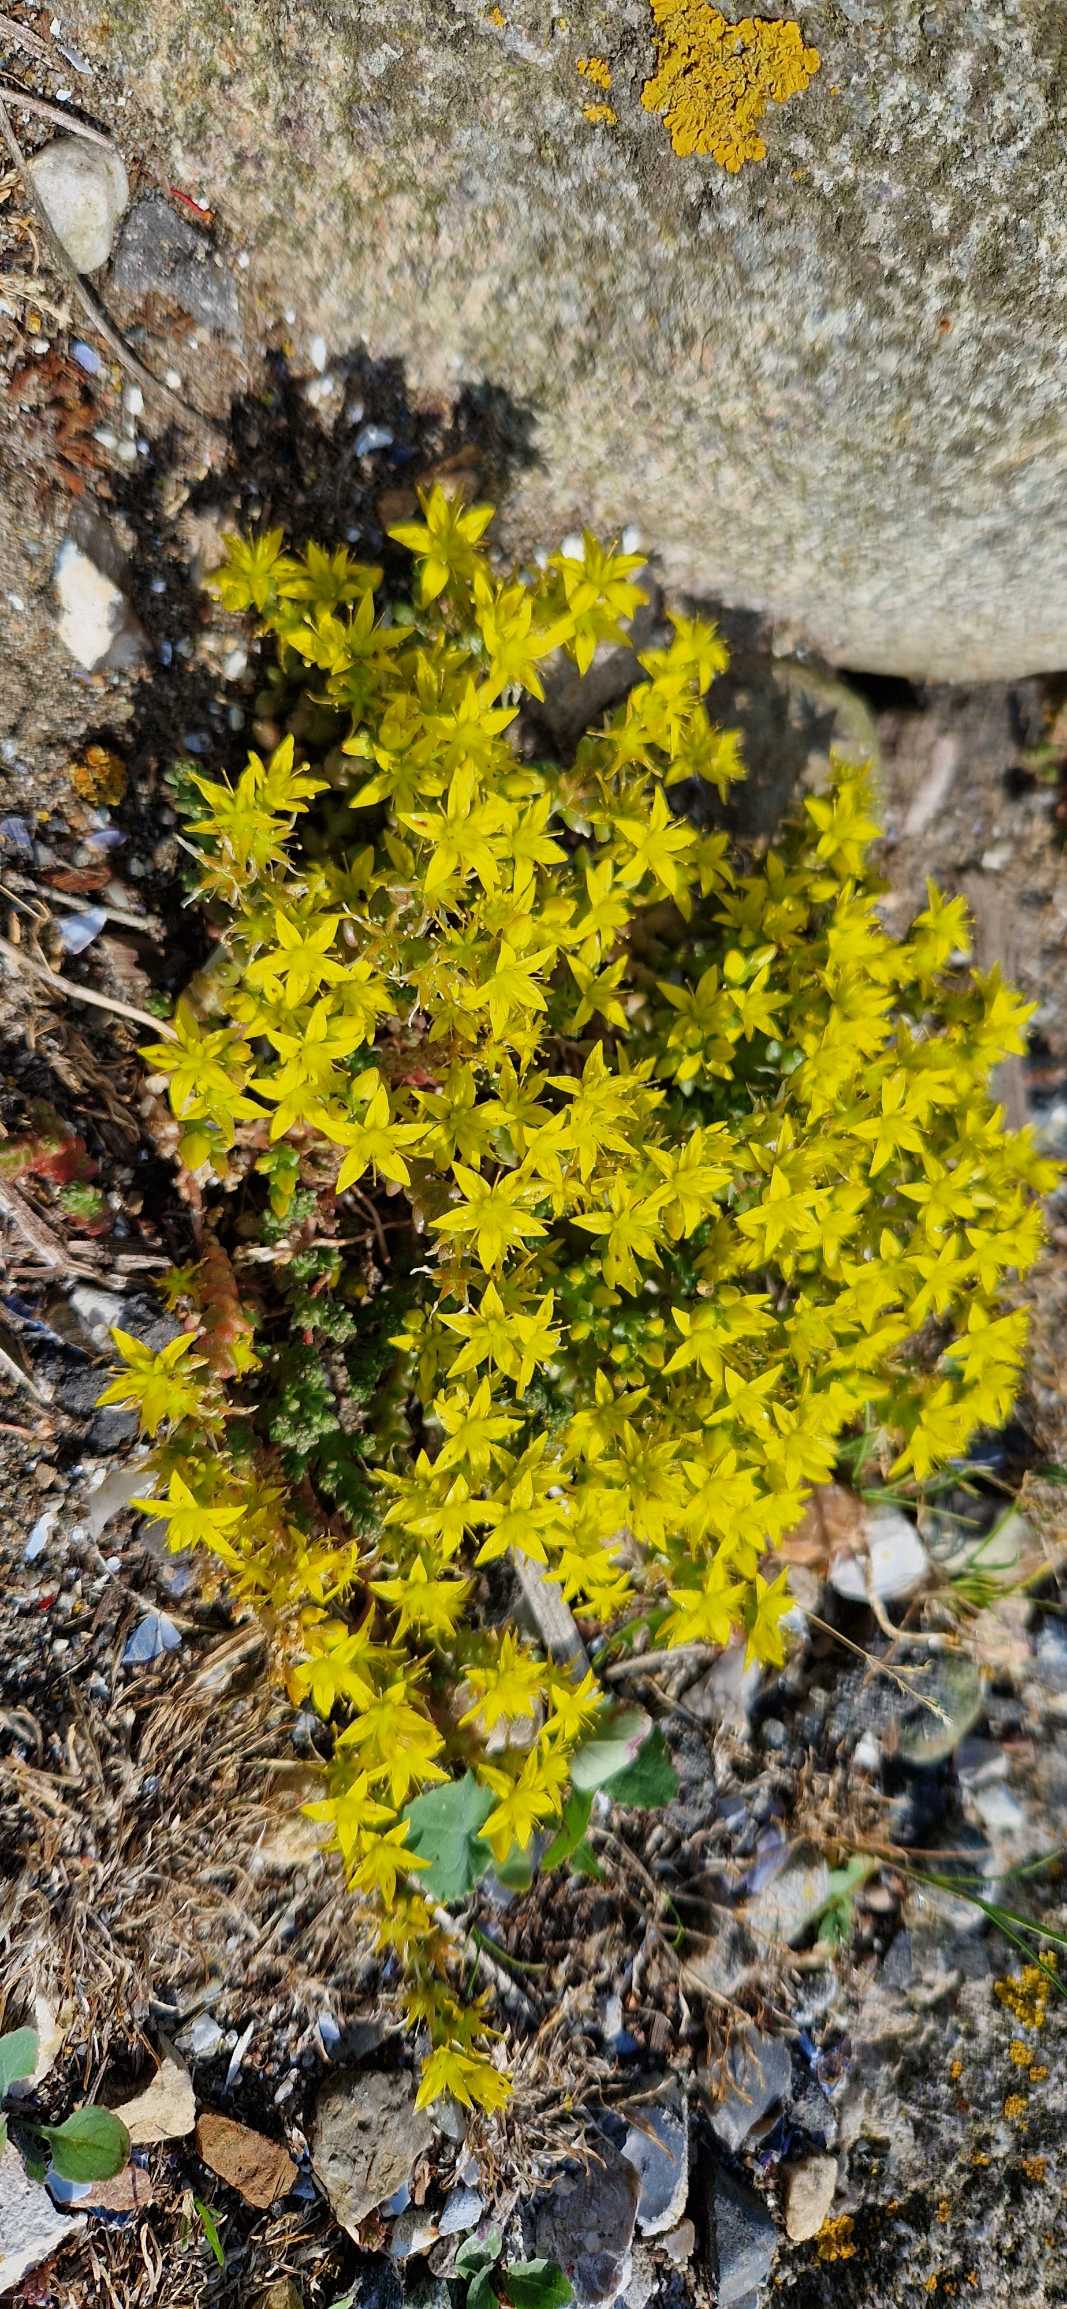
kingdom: Plantae
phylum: Tracheophyta
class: Magnoliopsida
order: Saxifragales
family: Crassulaceae
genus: Sedum
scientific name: Sedum acre
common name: Bidende stenurt
